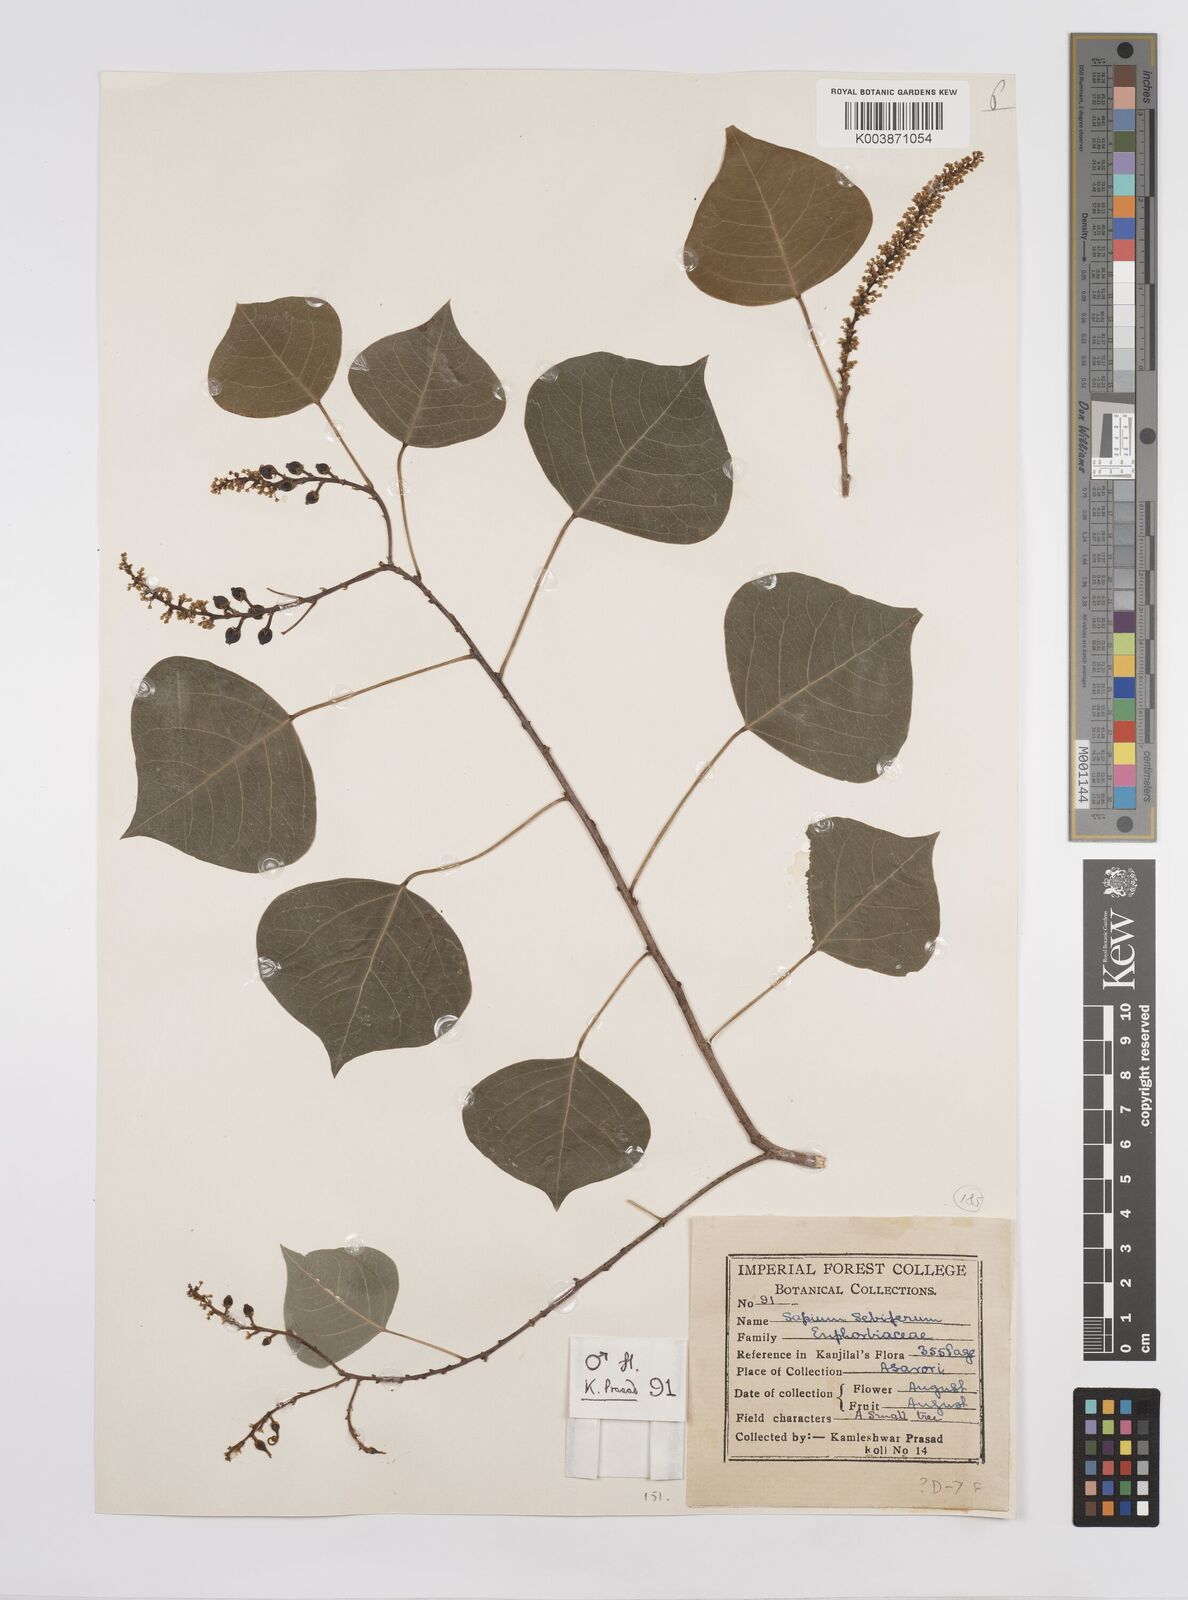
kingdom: Plantae
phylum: Tracheophyta
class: Magnoliopsida
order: Malpighiales
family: Euphorbiaceae
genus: Triadica
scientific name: Triadica sebifera
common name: Chinese tallow
